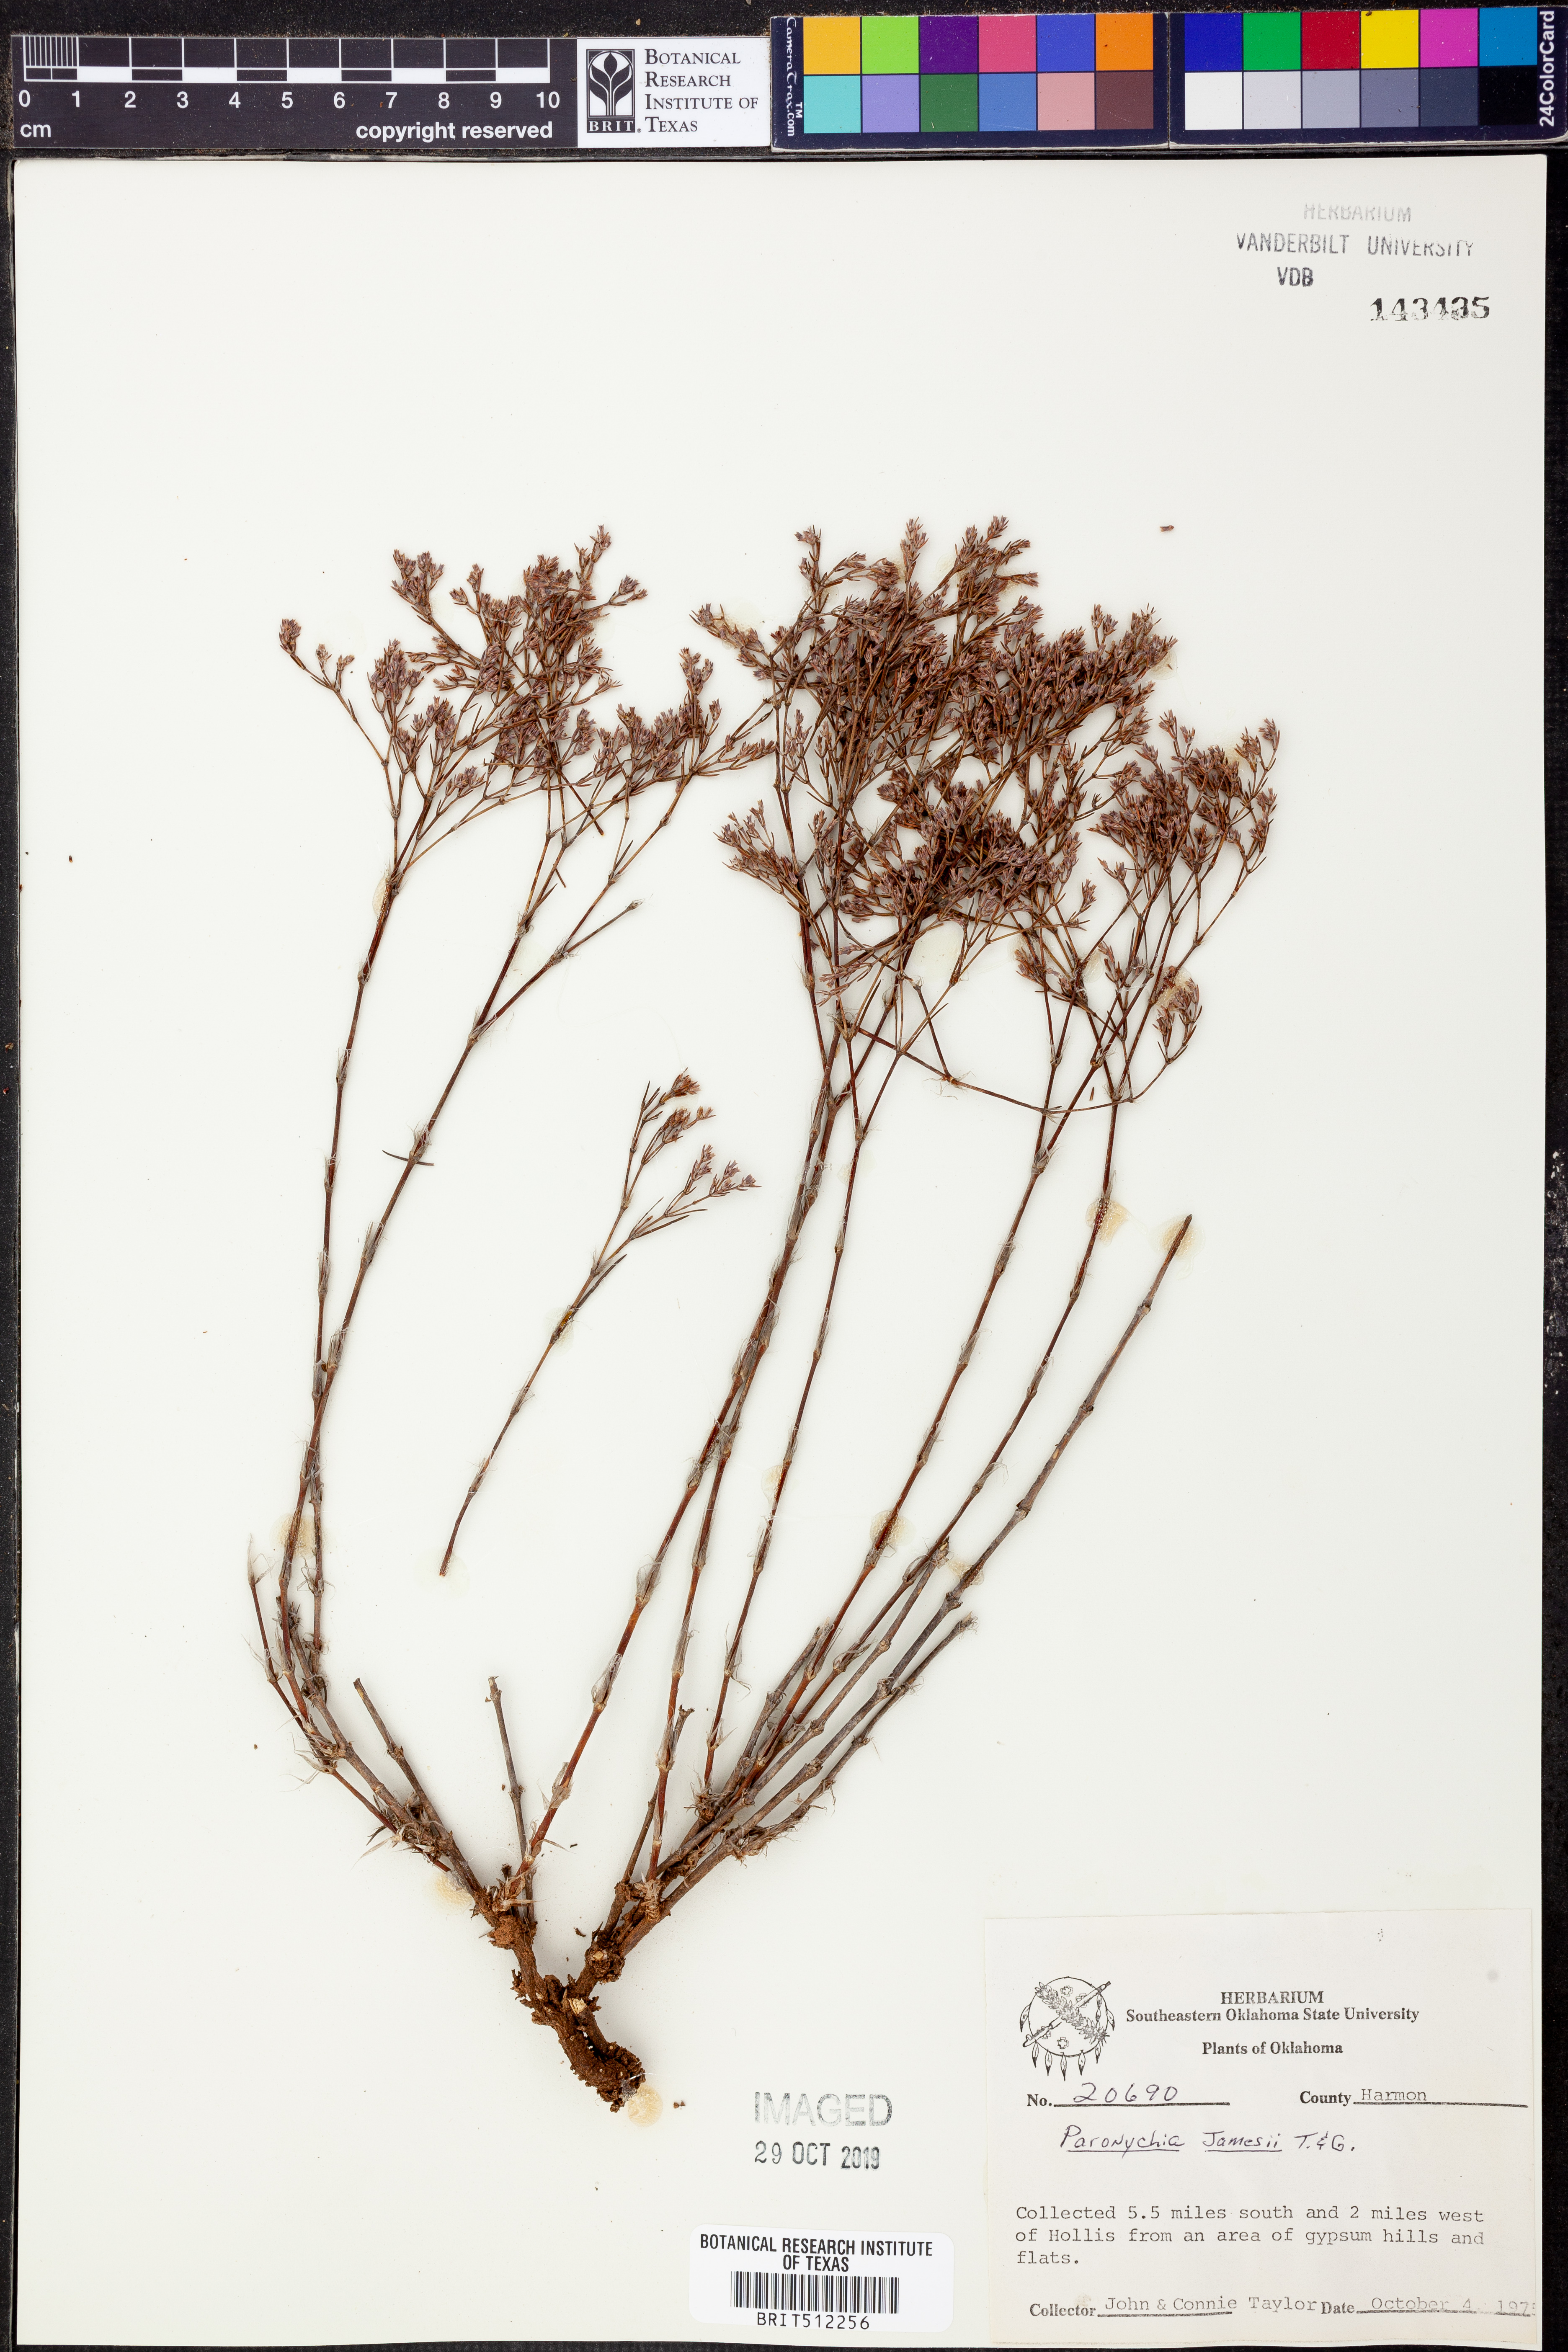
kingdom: Plantae
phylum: Tracheophyta
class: Magnoliopsida
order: Caryophyllales
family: Caryophyllaceae
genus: Paronychia
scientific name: Paronychia jamesii
